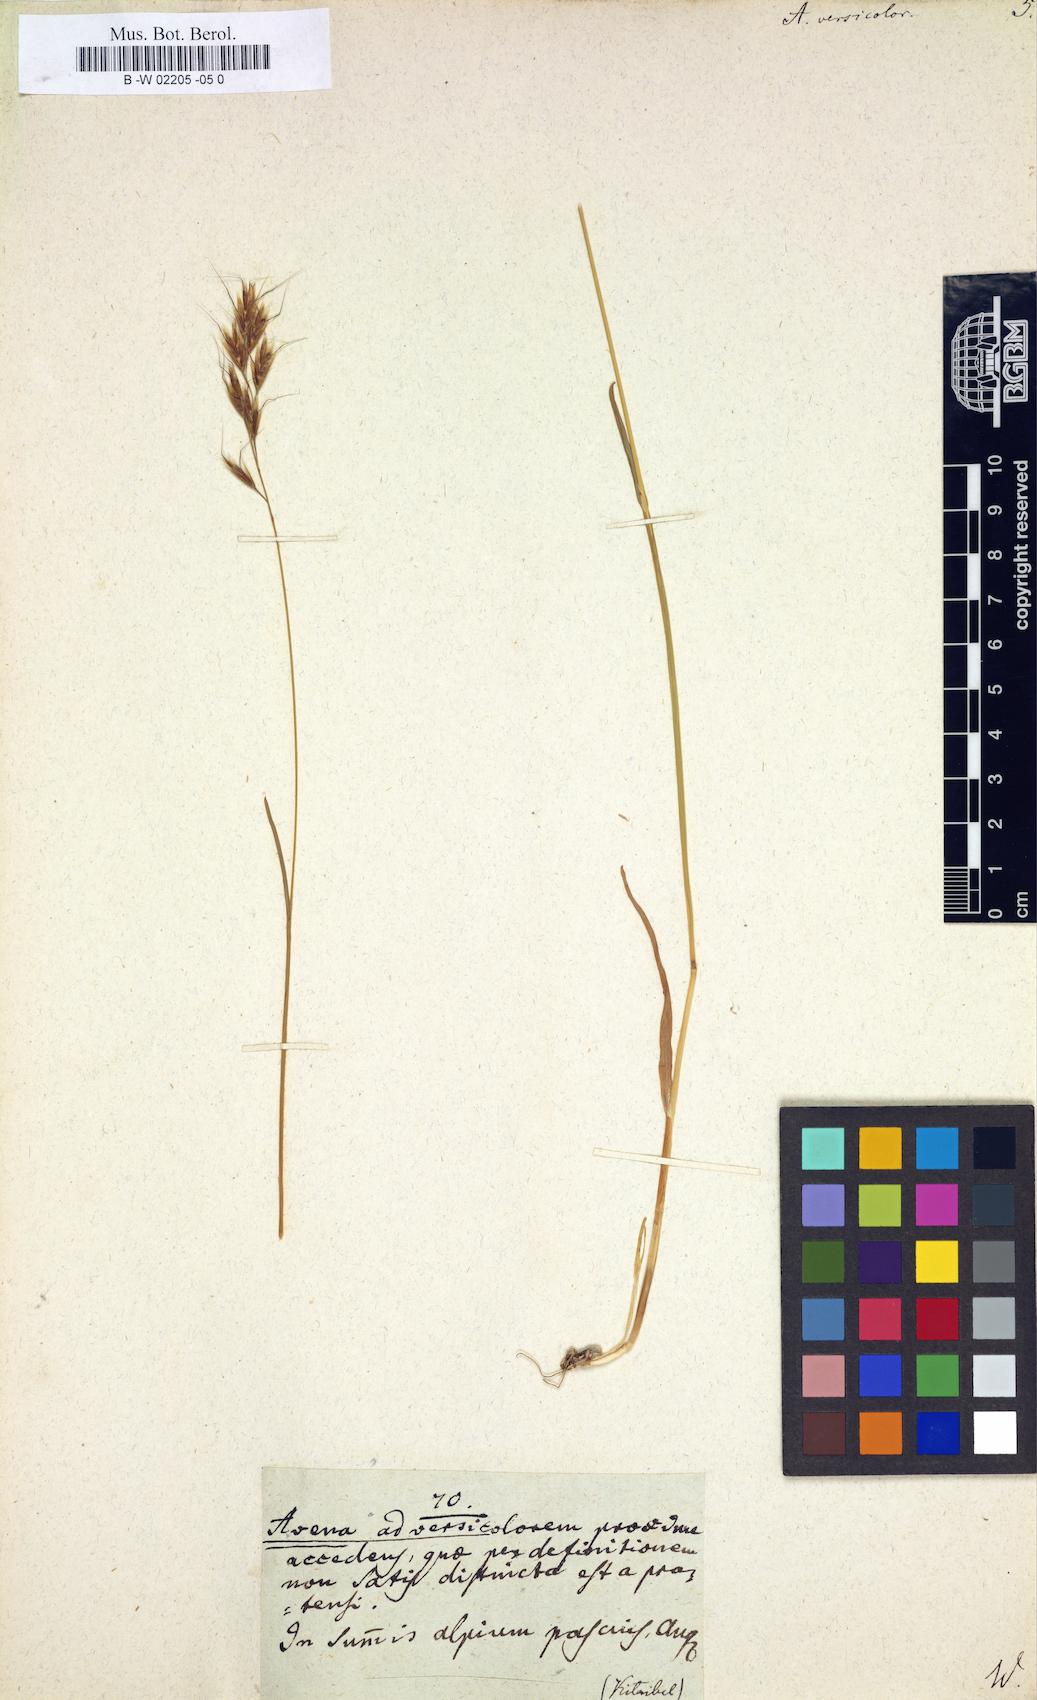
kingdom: Plantae
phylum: Tracheophyta
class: Liliopsida
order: Poales
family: Poaceae
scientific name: Poaceae
